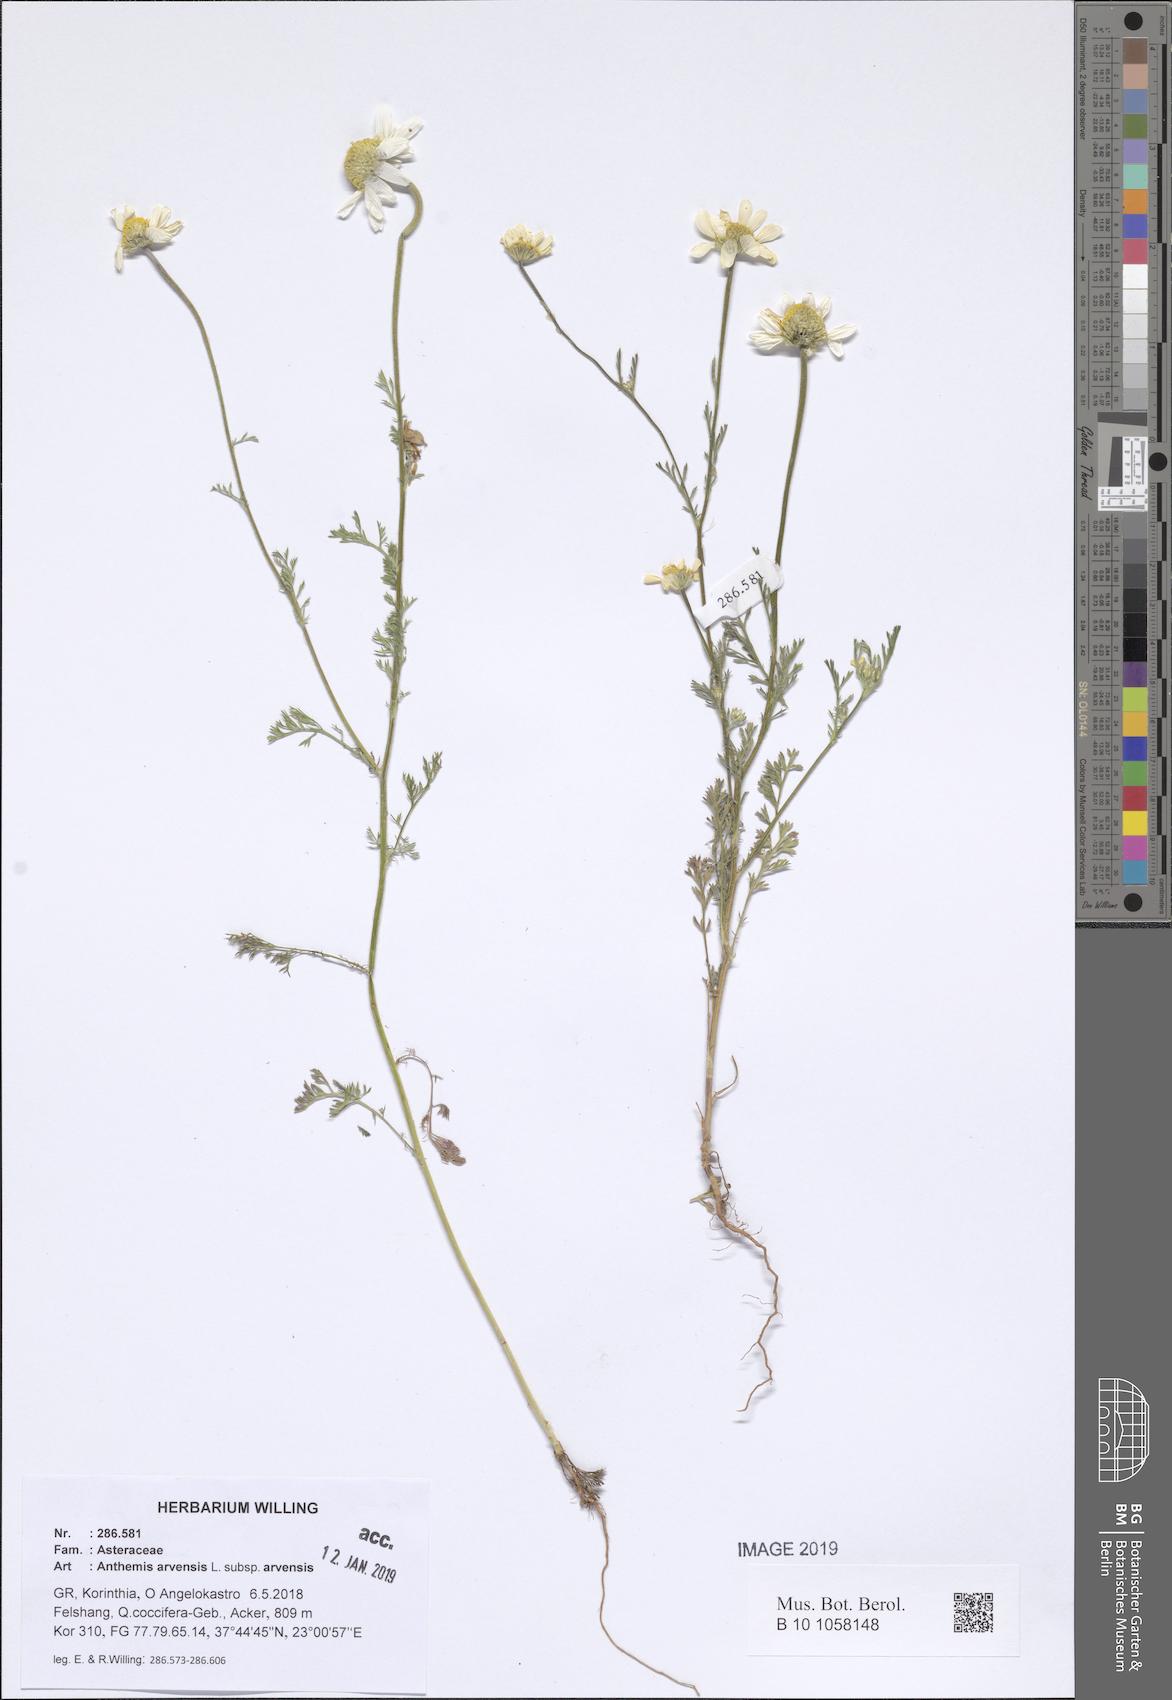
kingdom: Plantae
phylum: Tracheophyta
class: Magnoliopsida
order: Asterales
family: Asteraceae
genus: Anthemis
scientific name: Anthemis arvensis
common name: Corn chamomile
